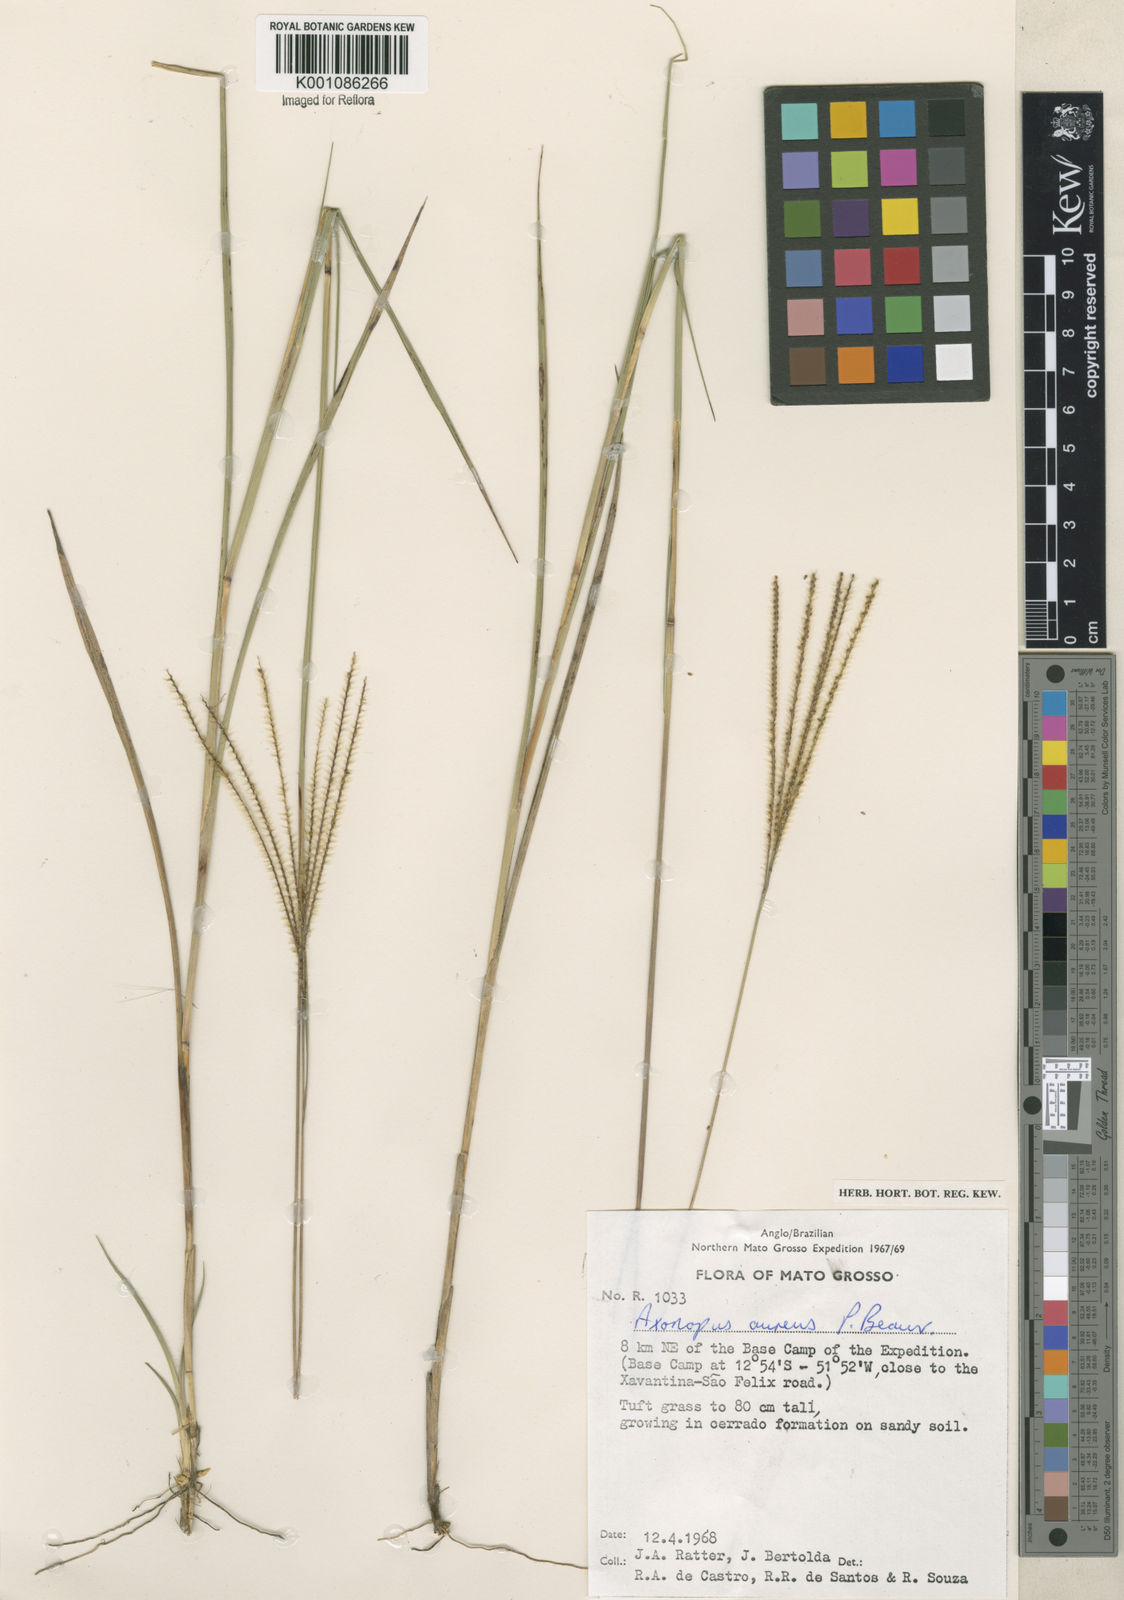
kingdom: Plantae
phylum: Tracheophyta
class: Liliopsida
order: Poales
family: Poaceae
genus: Axonopus
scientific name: Axonopus aureus
